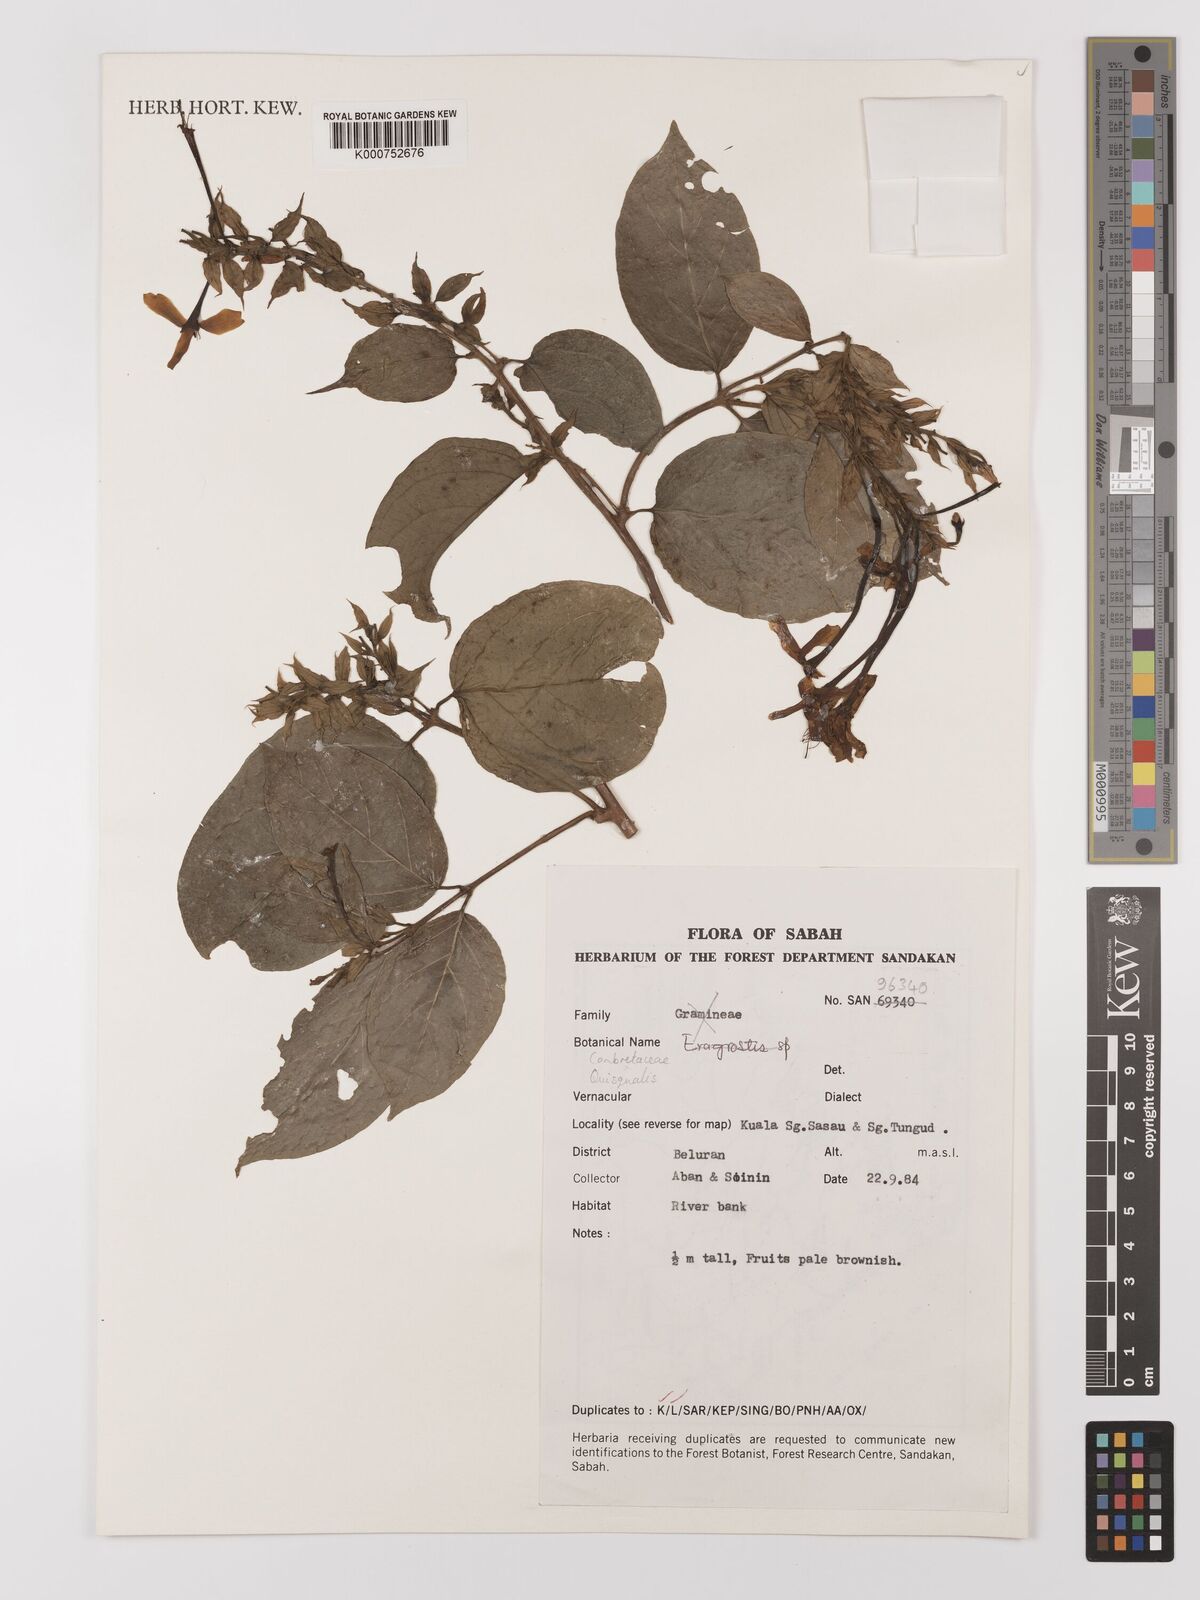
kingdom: Plantae
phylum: Tracheophyta
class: Magnoliopsida
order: Myrtales
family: Combretaceae
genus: Combretum
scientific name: Combretum
